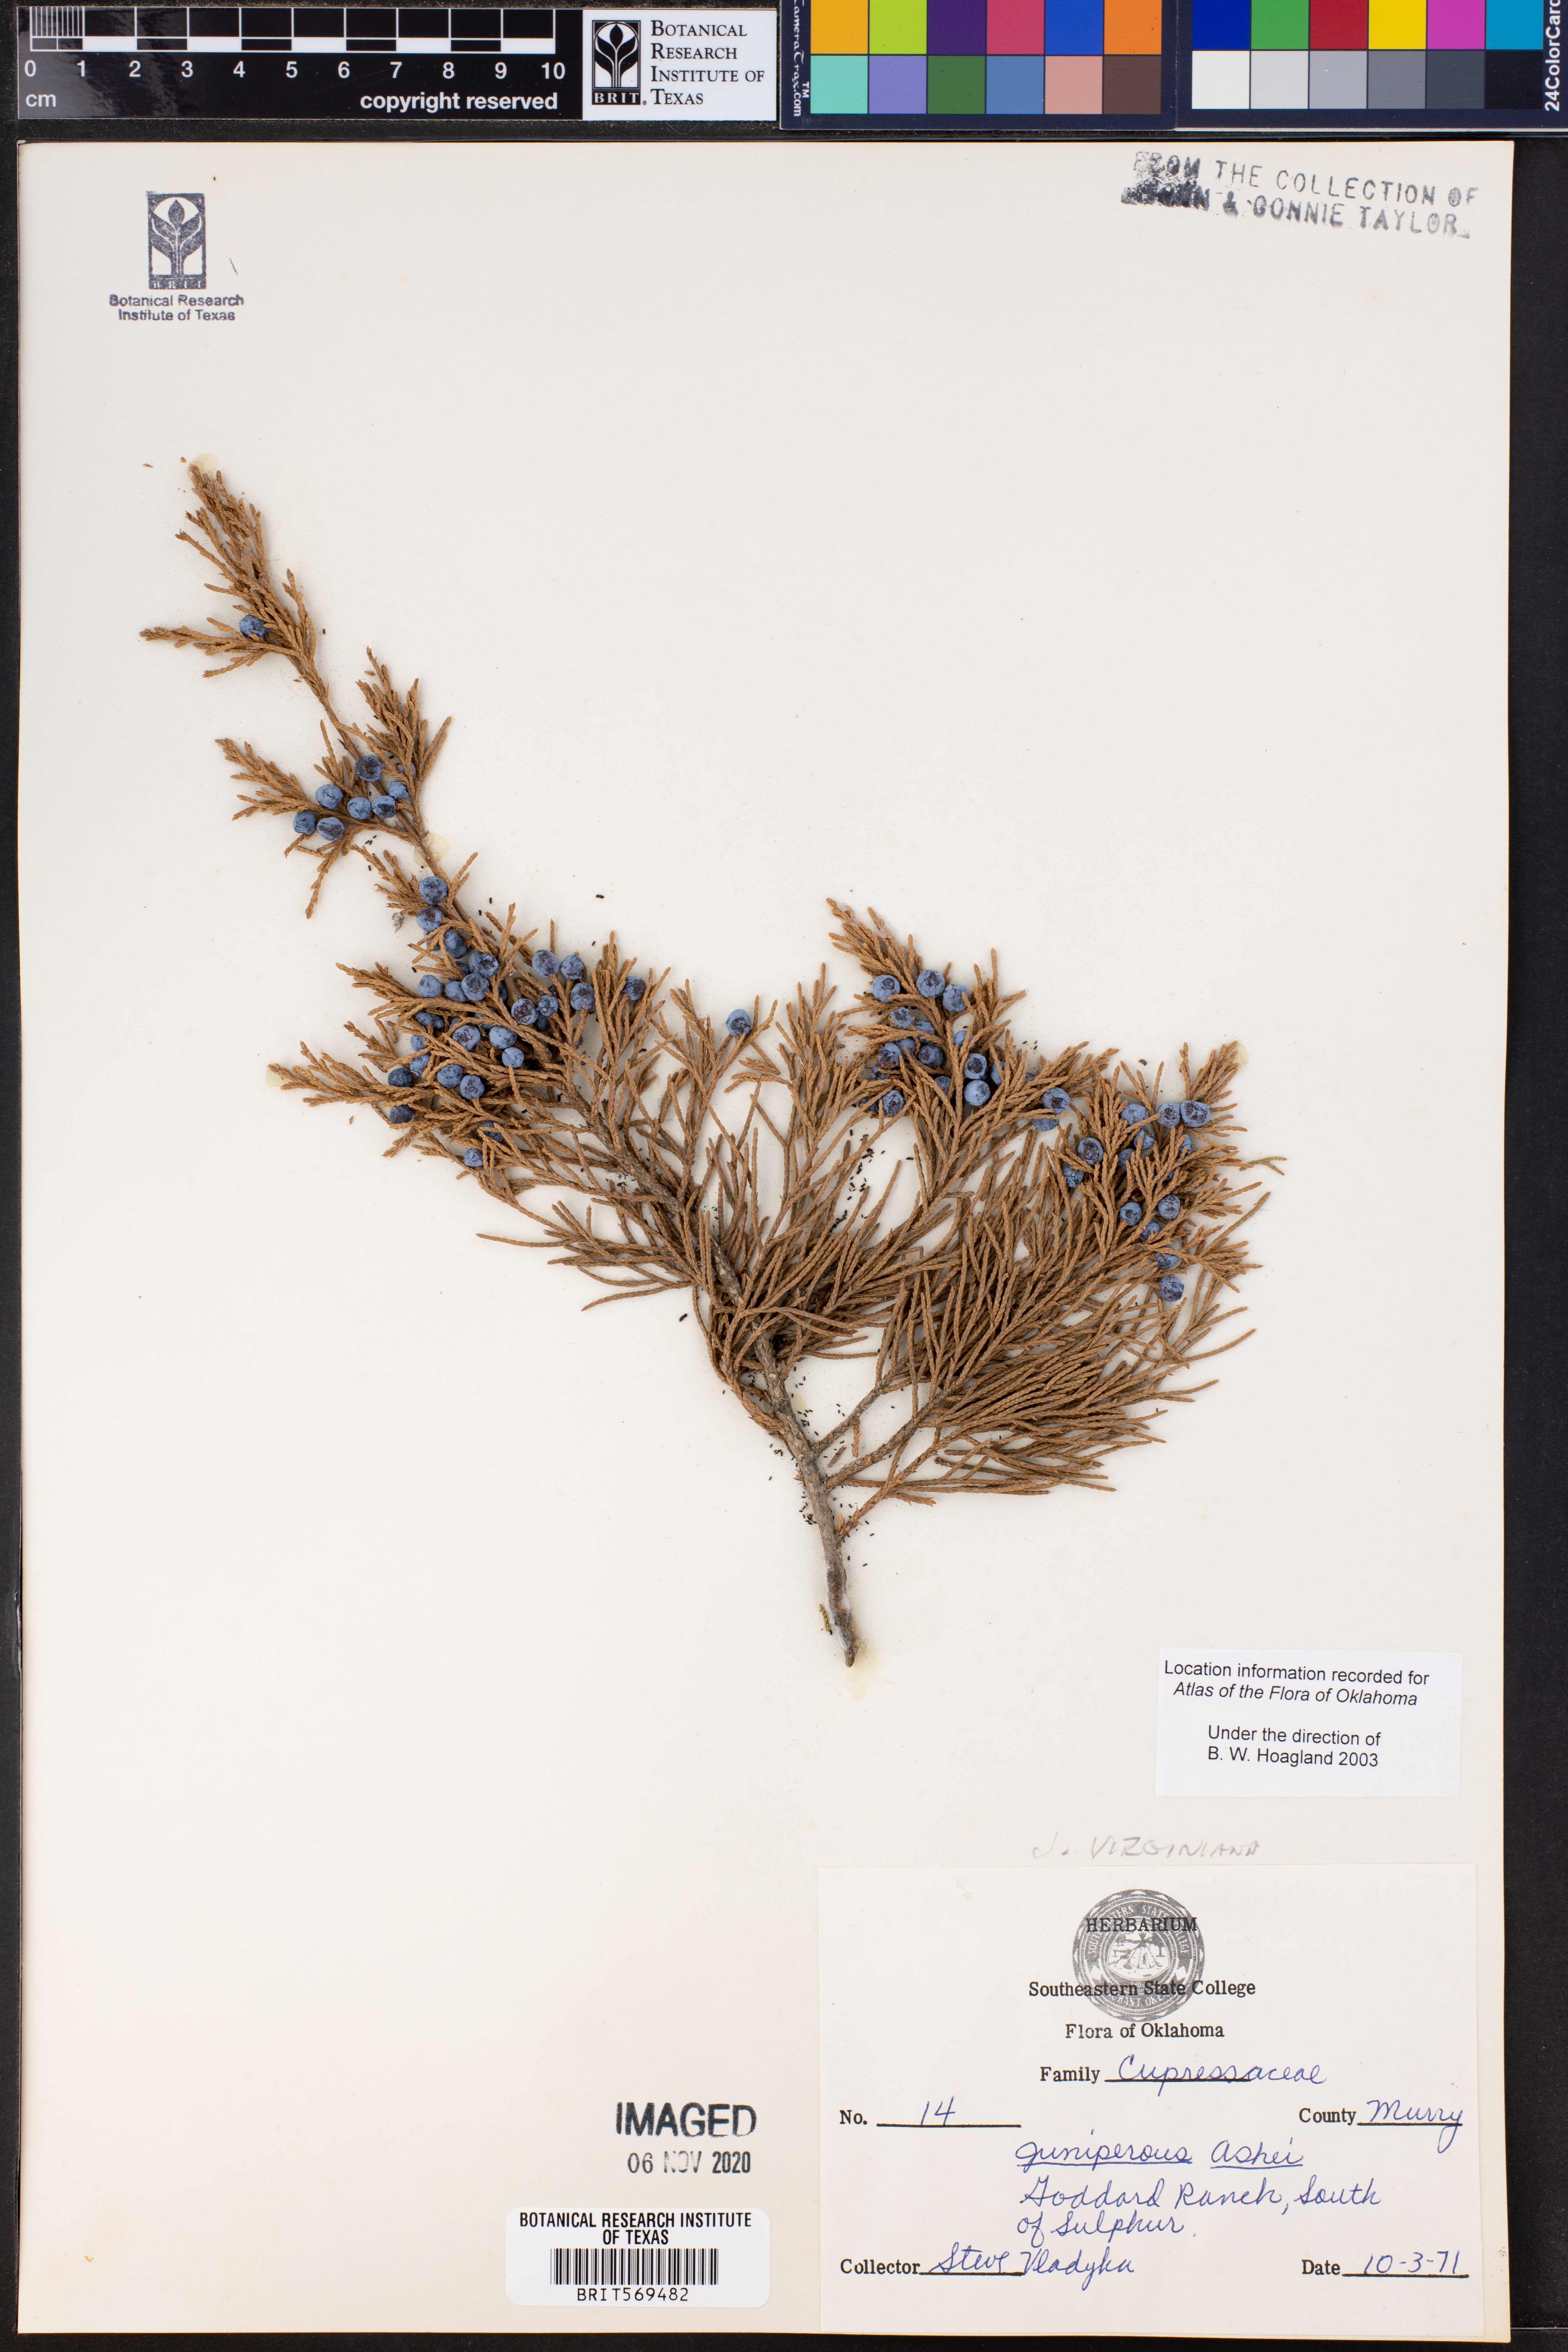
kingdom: Plantae
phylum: Tracheophyta
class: Pinopsida
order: Pinales
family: Cupressaceae
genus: Juniperus
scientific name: Juniperus ashei
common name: Mexican juniper
